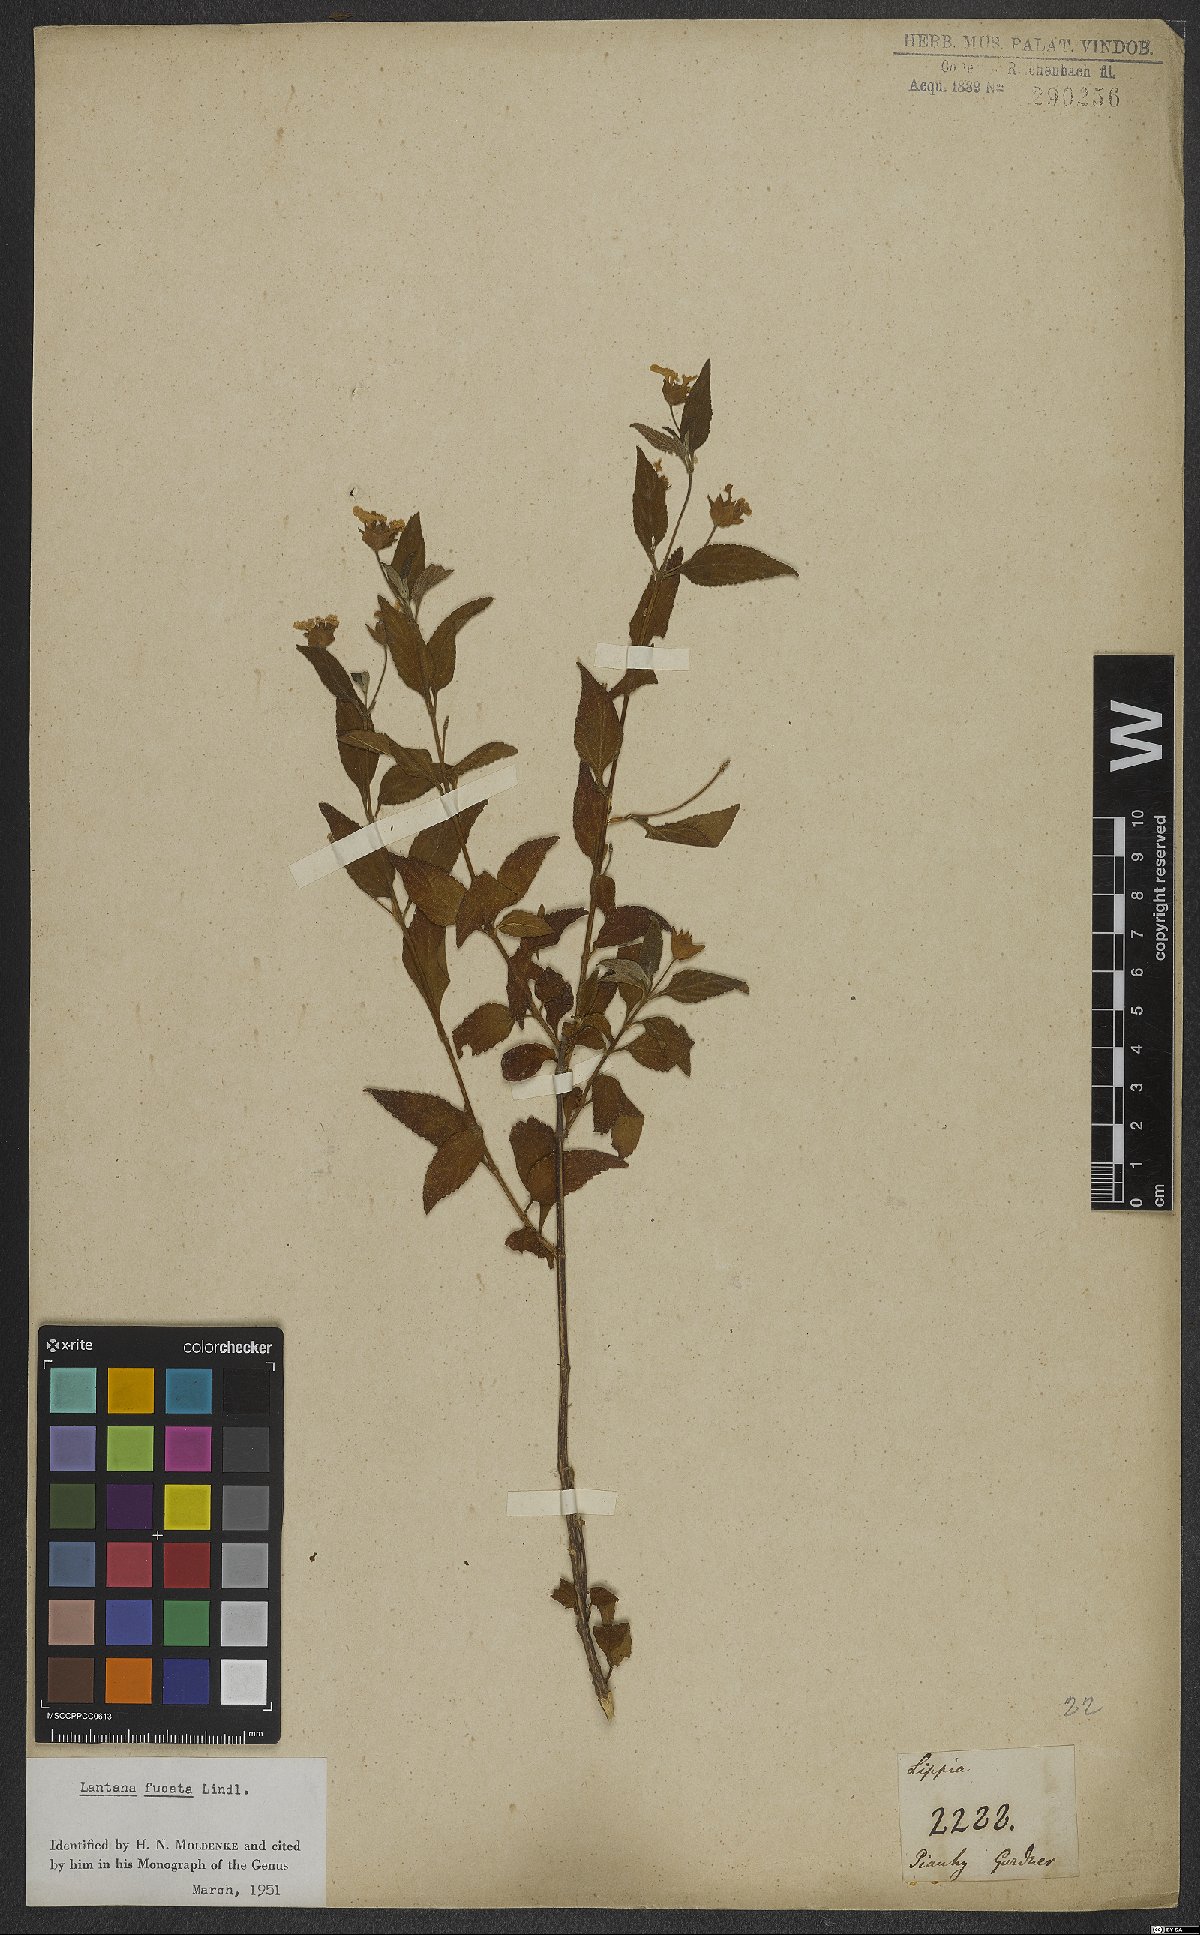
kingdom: Plantae
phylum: Tracheophyta
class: Magnoliopsida
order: Lamiales
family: Verbenaceae
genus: Lantana
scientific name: Lantana fucata
